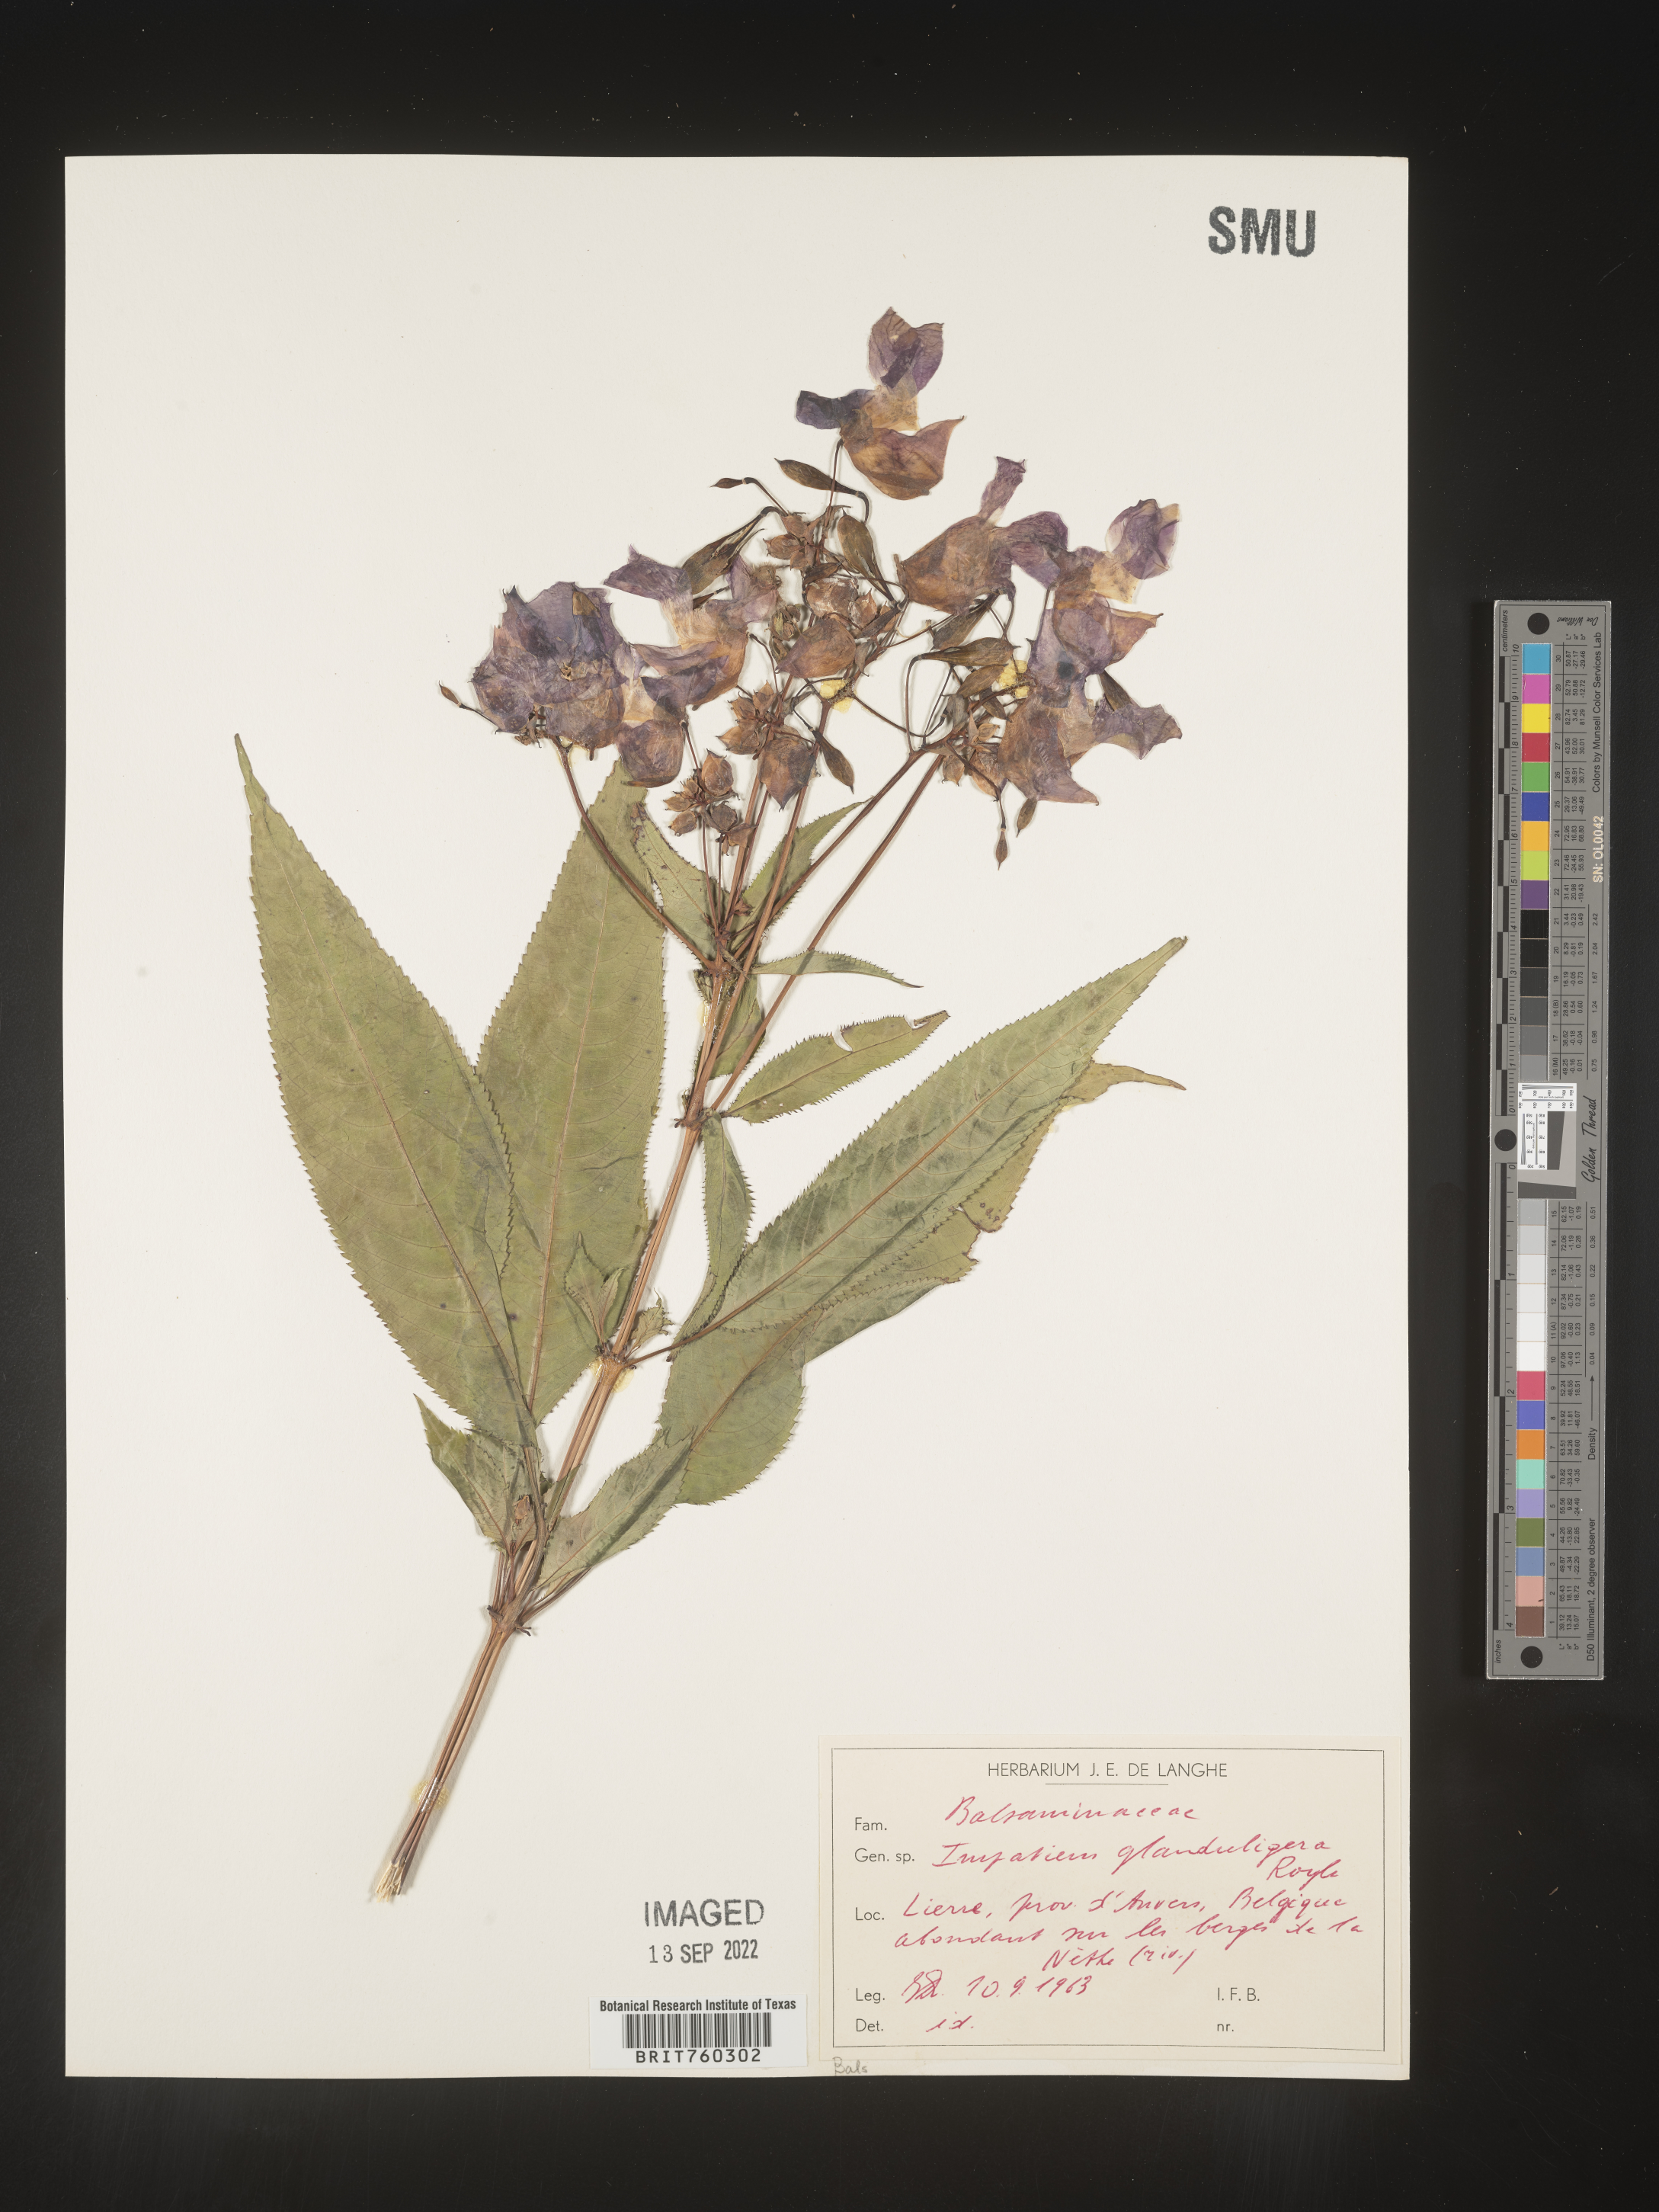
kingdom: Plantae
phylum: Tracheophyta
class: Magnoliopsida
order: Ericales
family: Balsaminaceae
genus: Impatiens
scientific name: Impatiens
